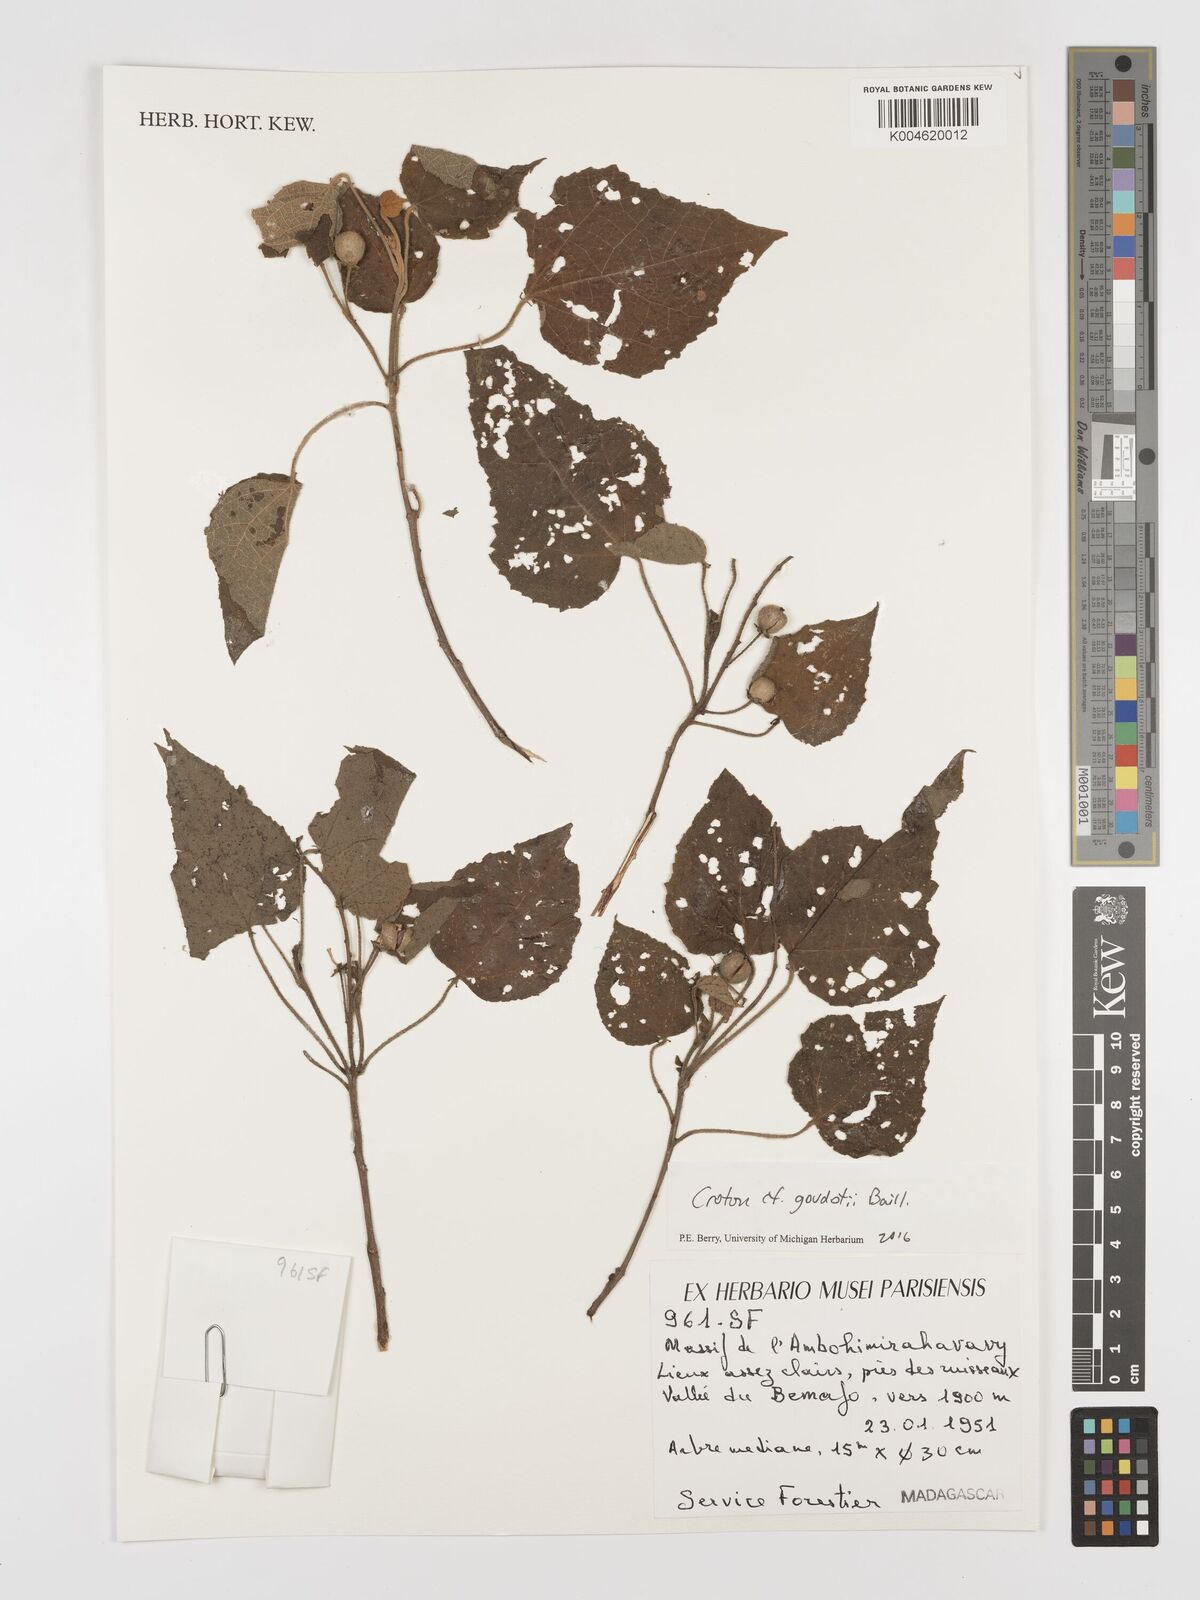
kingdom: Plantae
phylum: Tracheophyta
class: Magnoliopsida
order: Malpighiales
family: Euphorbiaceae
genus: Croton
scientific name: Croton goudotii
